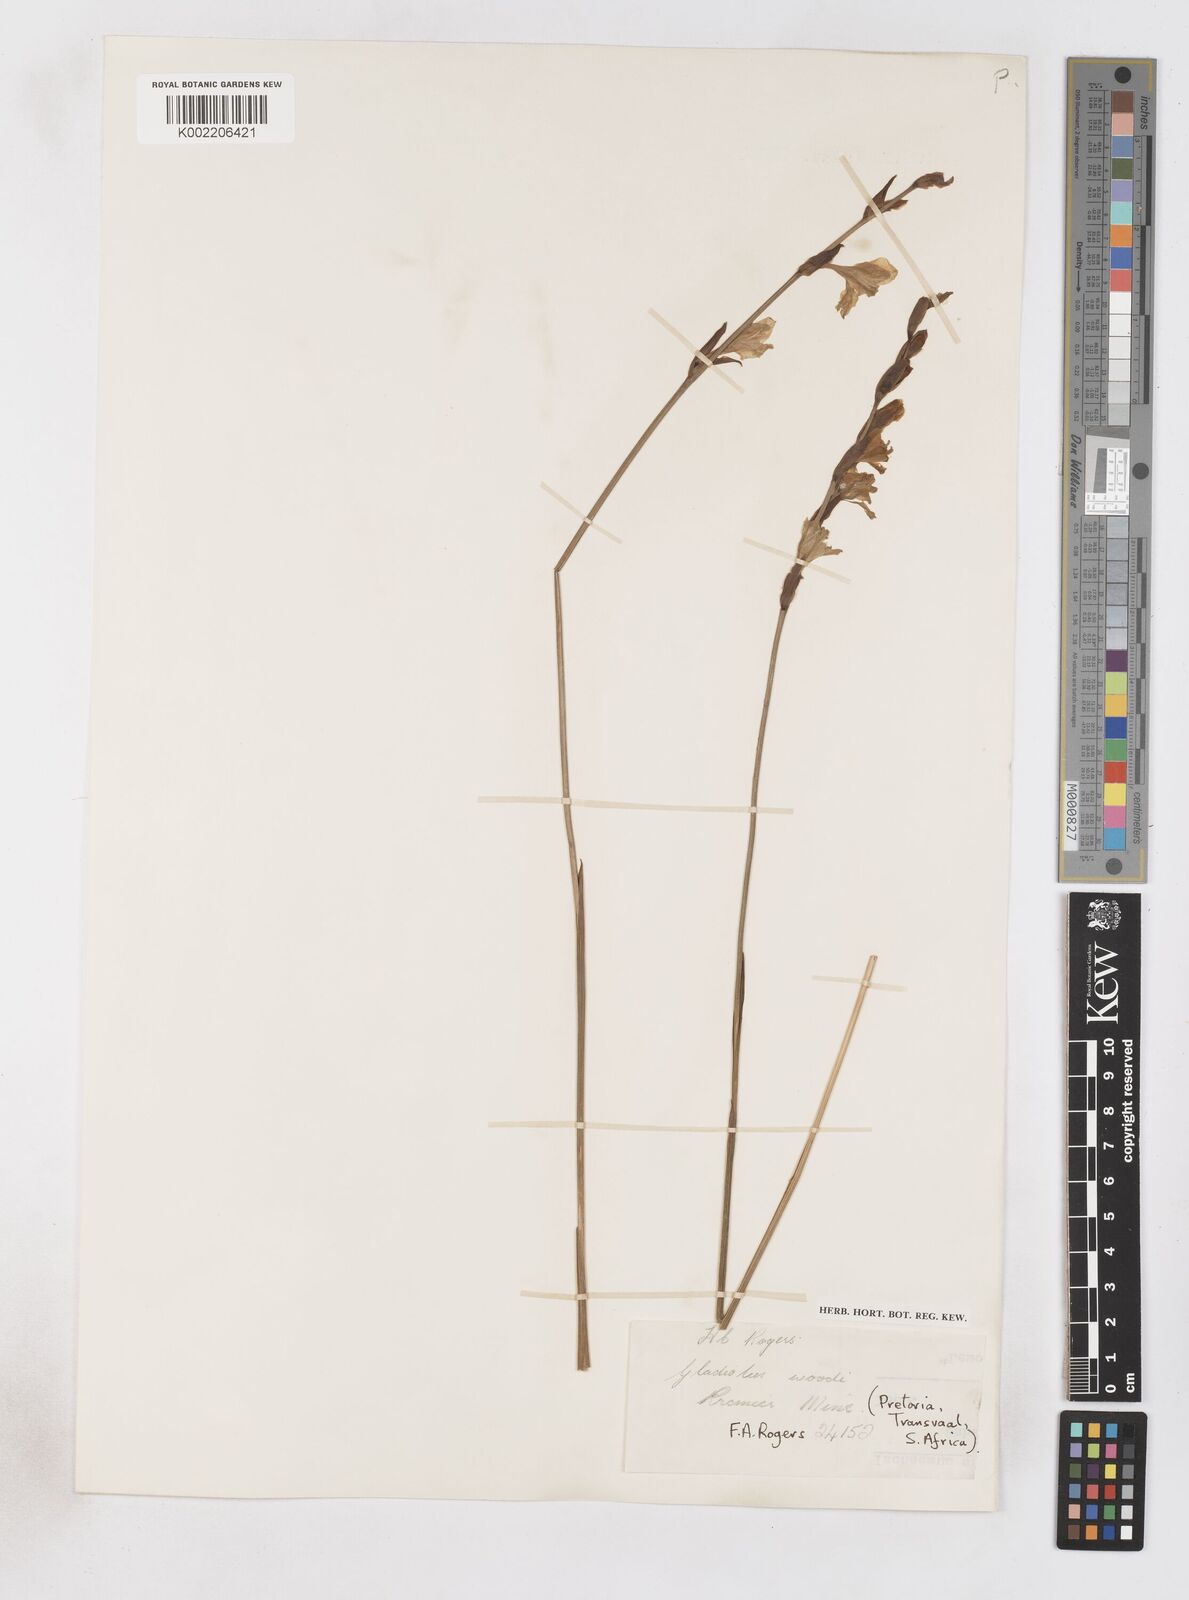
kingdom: Plantae
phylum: Tracheophyta
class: Liliopsida
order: Asparagales
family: Iridaceae
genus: Gladiolus
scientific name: Gladiolus woodii
